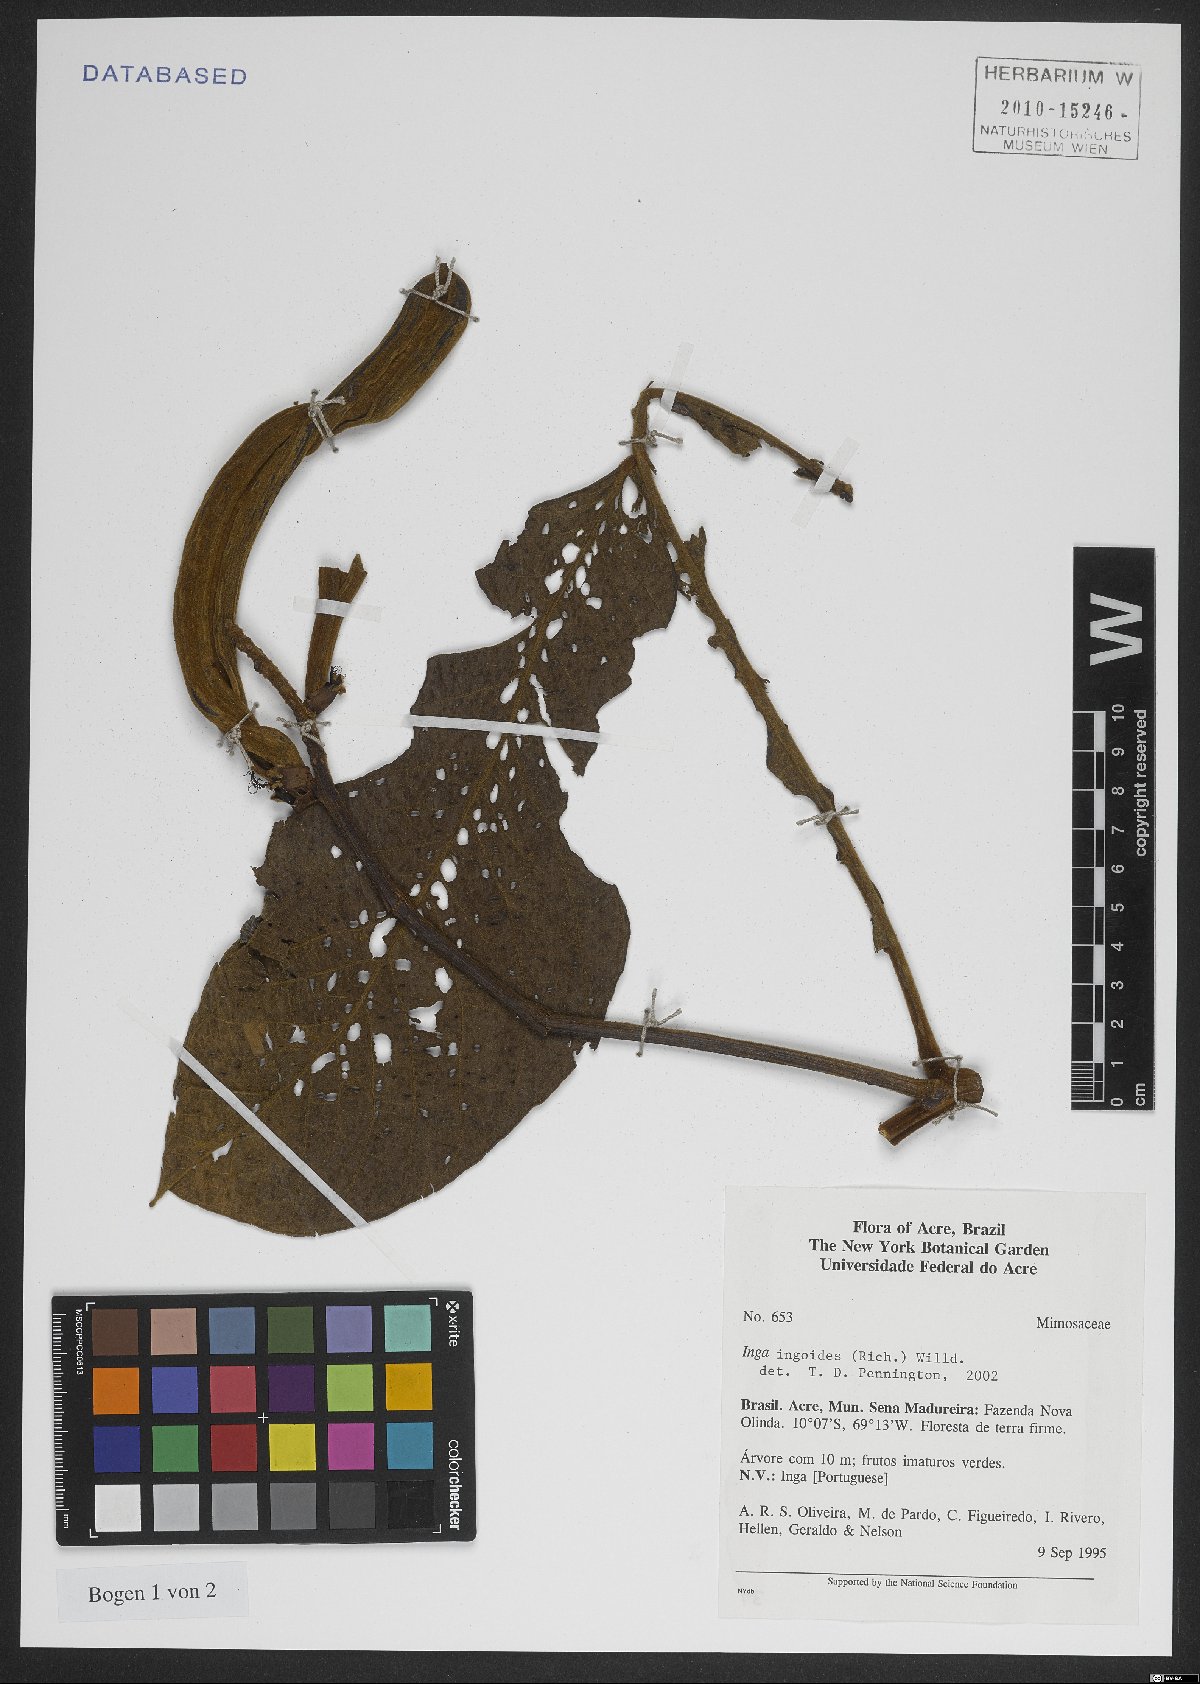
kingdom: Plantae
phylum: Tracheophyta
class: Magnoliopsida
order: Fabales
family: Fabaceae
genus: Inga
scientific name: Inga ingoides
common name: Spanish ash
